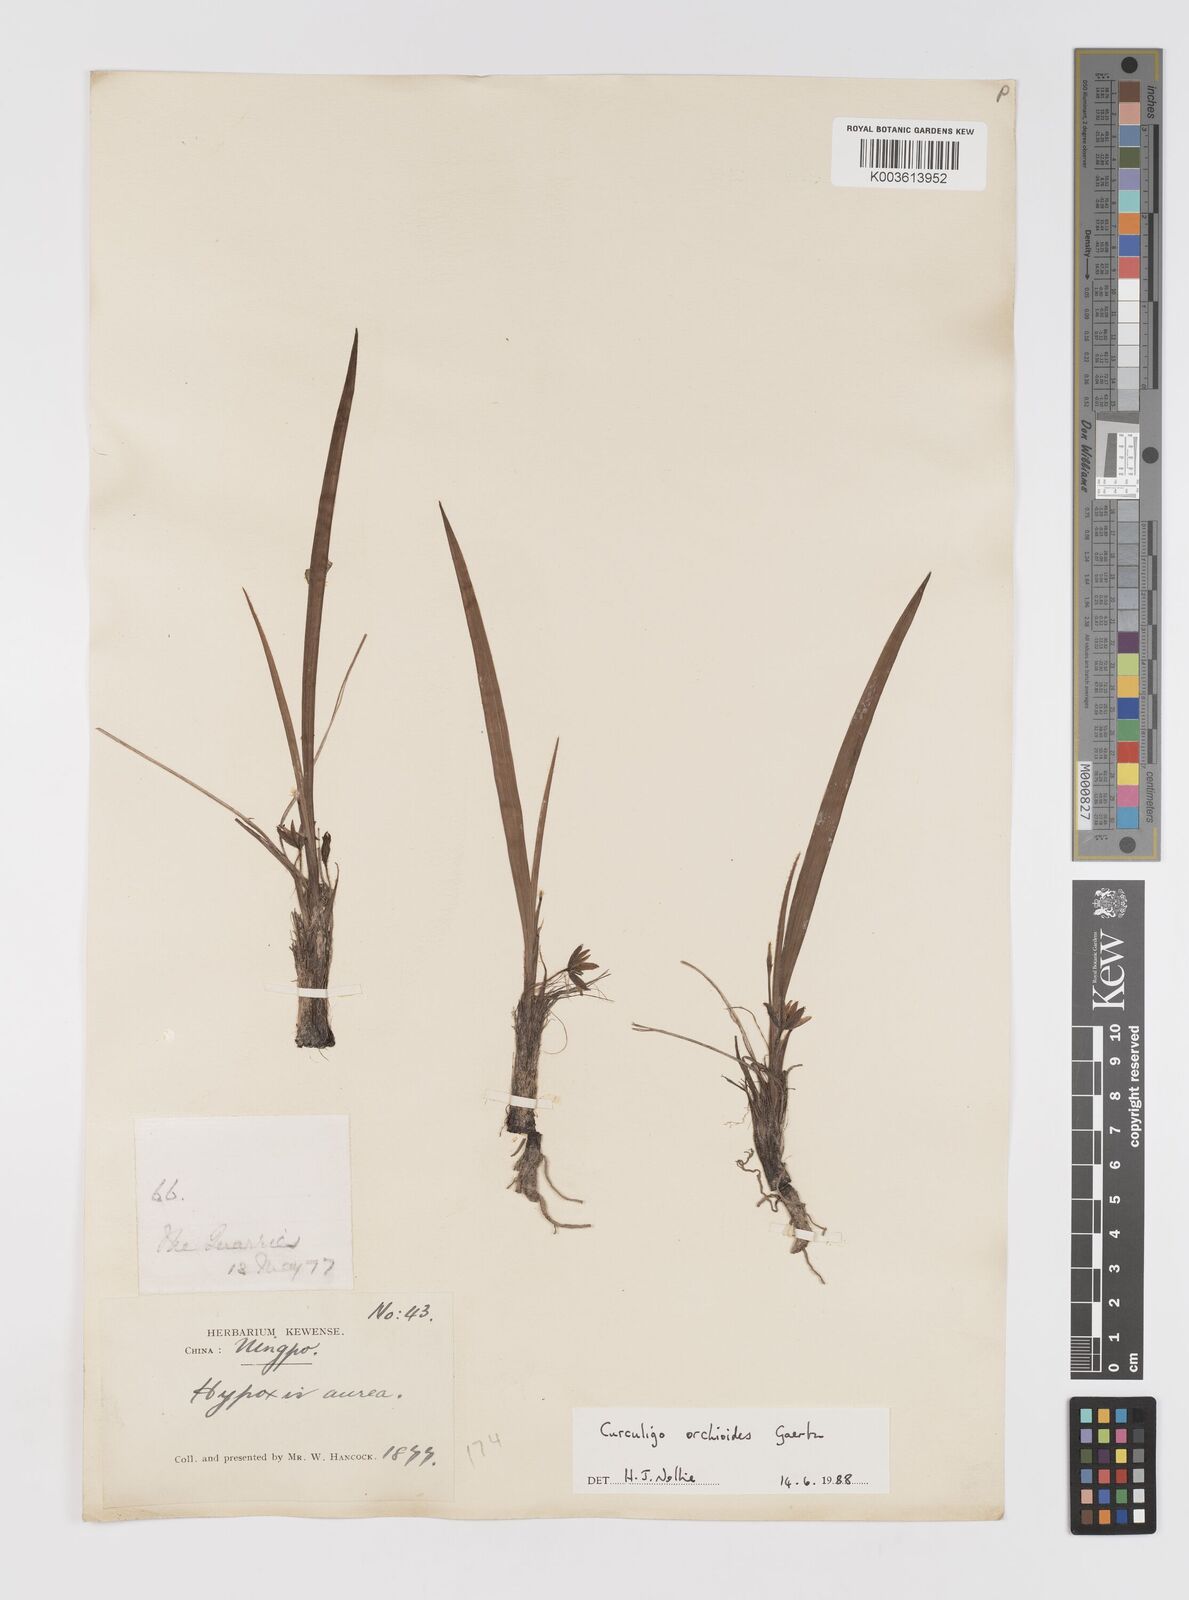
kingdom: Plantae
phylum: Tracheophyta
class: Liliopsida
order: Asparagales
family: Hypoxidaceae
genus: Curculigo
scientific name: Curculigo orchioides
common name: Golden eye-grass
